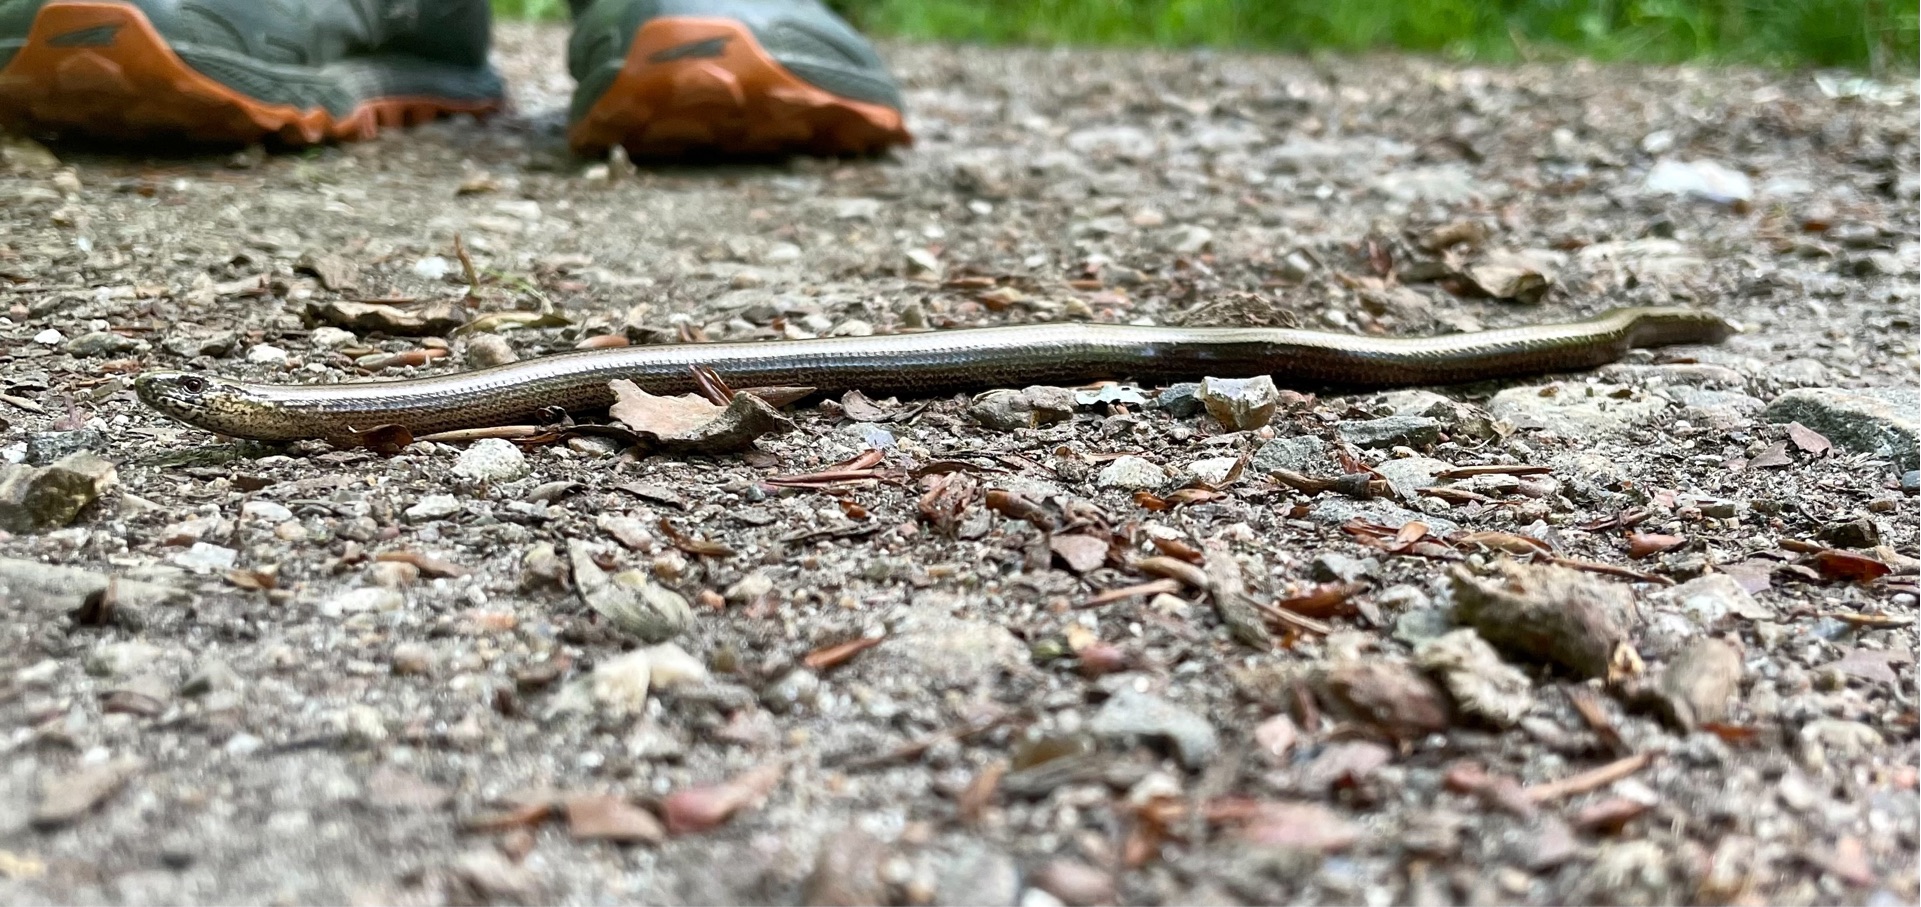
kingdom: Animalia
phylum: Chordata
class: Squamata
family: Anguidae
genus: Anguis
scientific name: Anguis fragilis
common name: Stålorm
